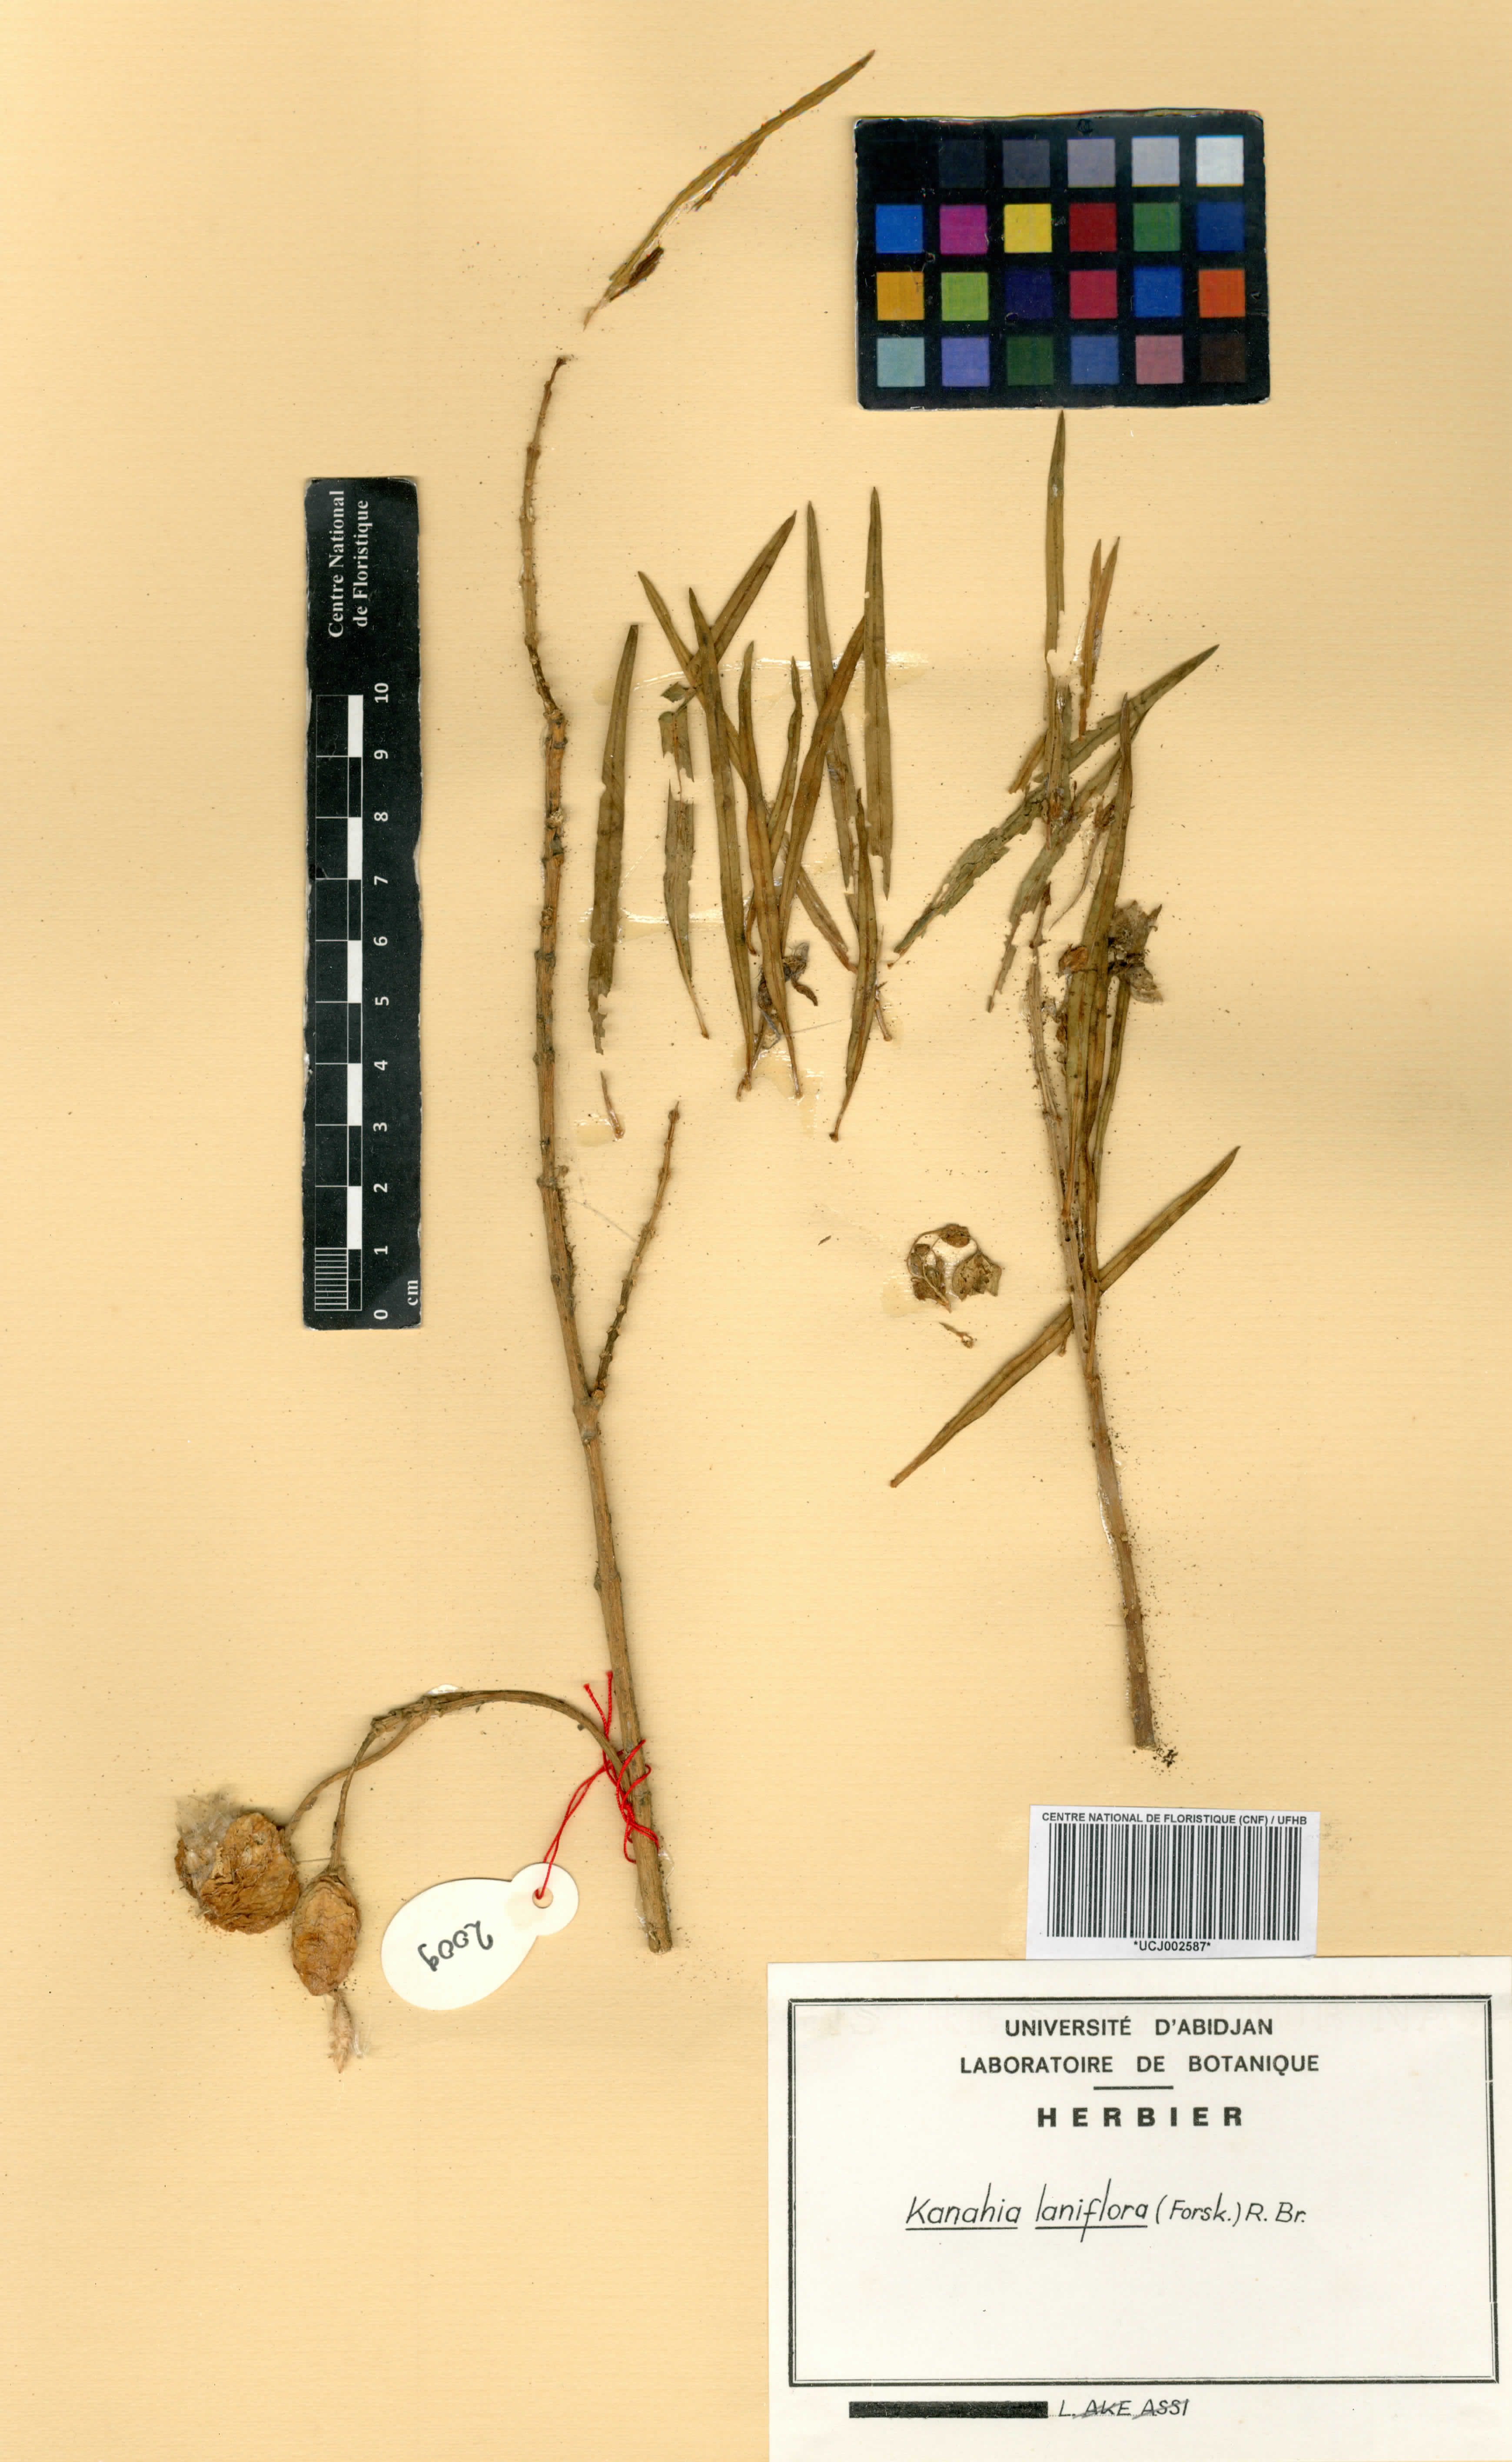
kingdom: Plantae
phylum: Tracheophyta
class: Magnoliopsida
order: Gentianales
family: Apocynaceae
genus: Kanahia
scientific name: Kanahia laniflora
